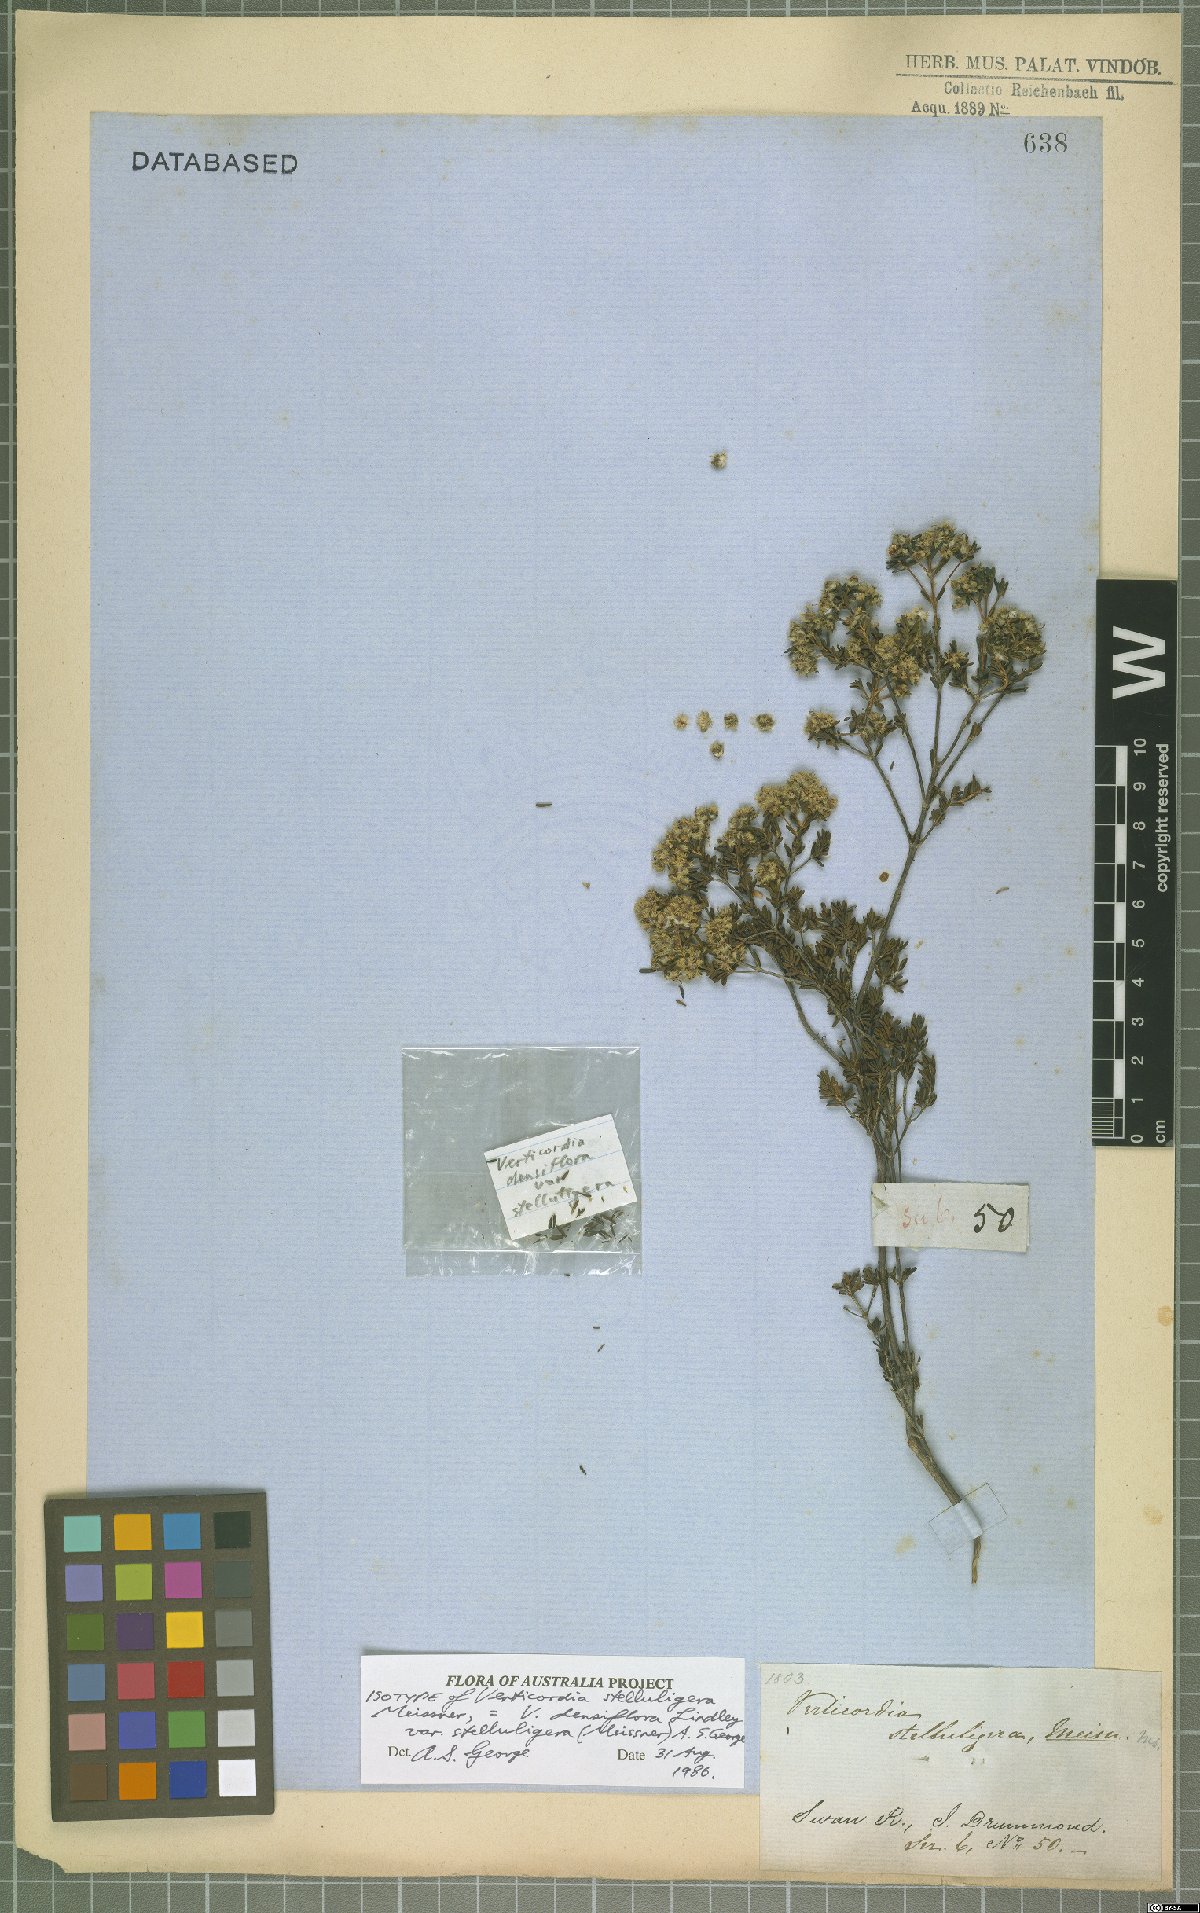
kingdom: Plantae
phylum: Tracheophyta
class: Magnoliopsida
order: Myrtales
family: Myrtaceae
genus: Verticordia
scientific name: Verticordia densiflora
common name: Compact feather-flower
